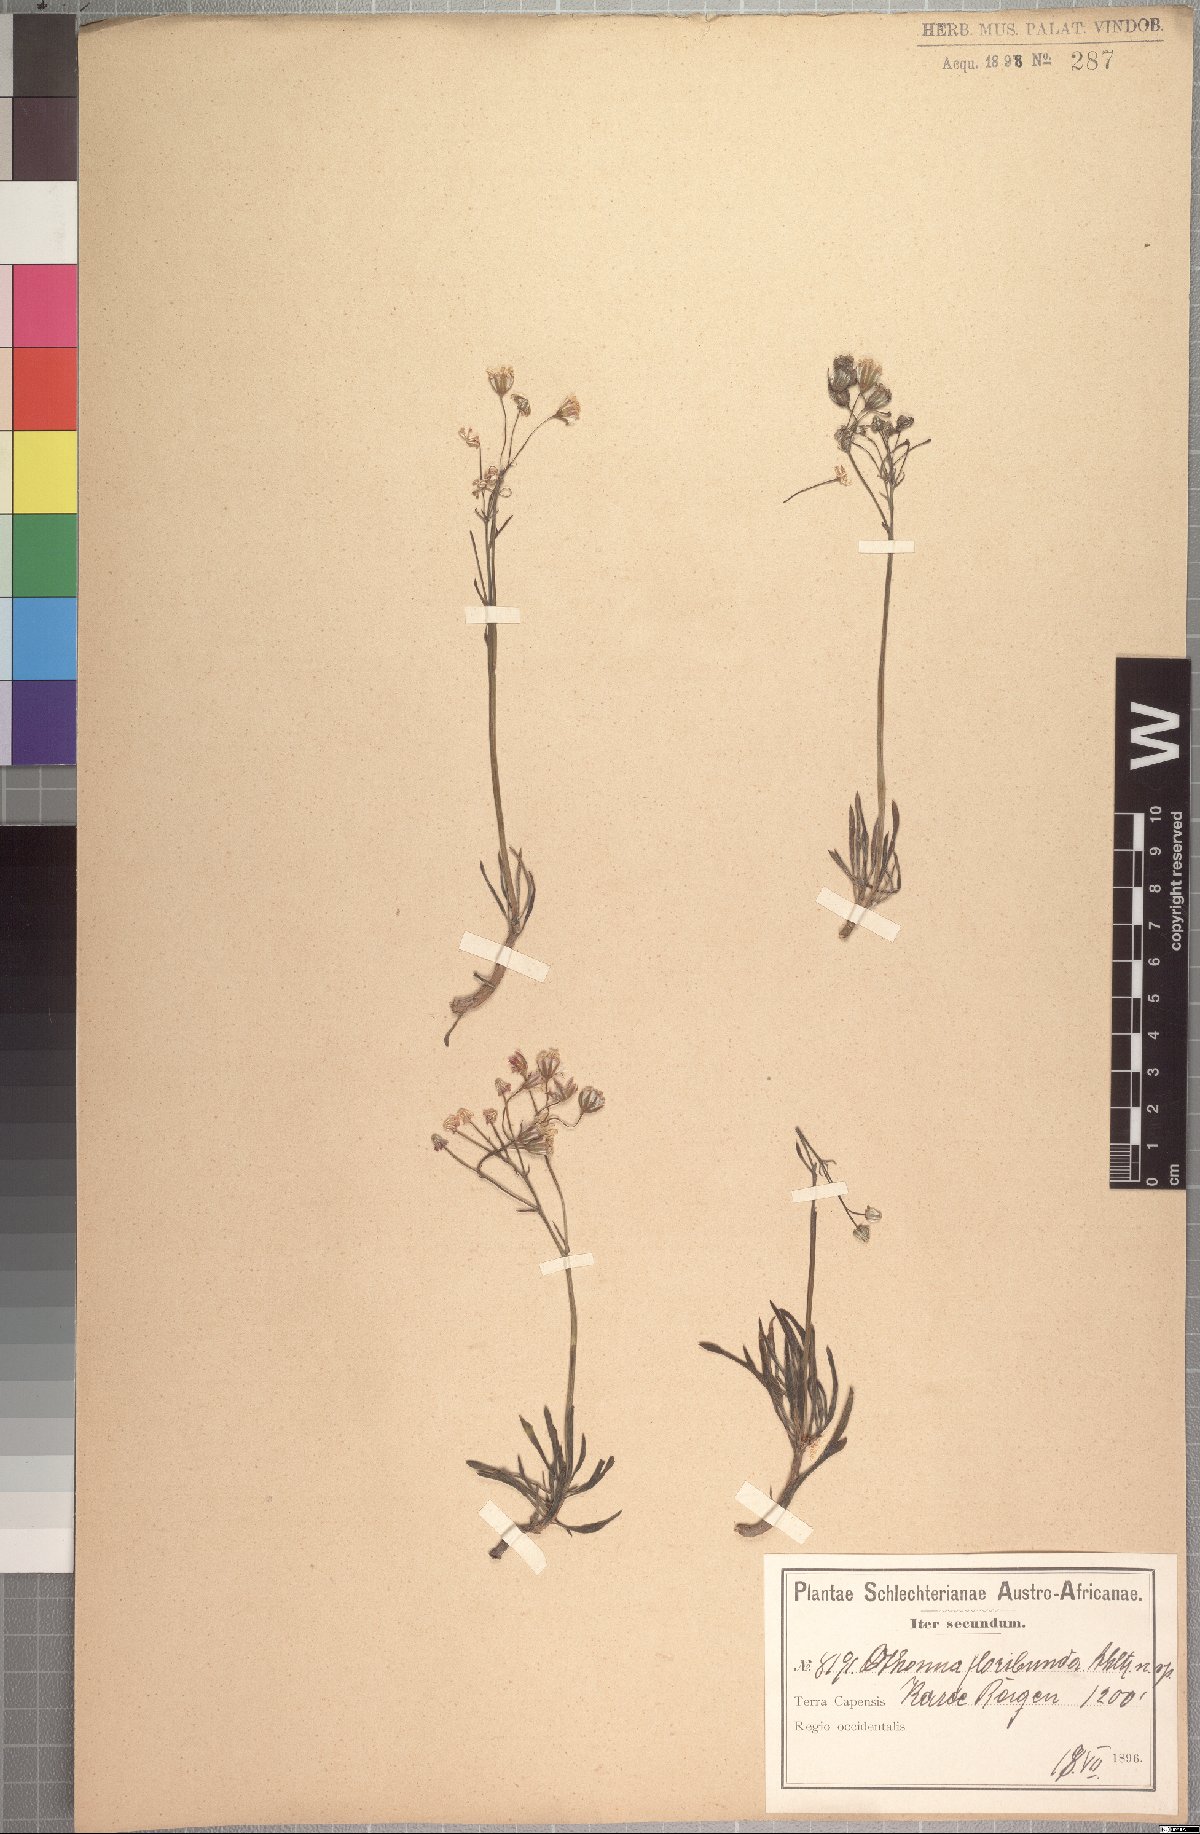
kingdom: Plantae
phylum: Tracheophyta
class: Magnoliopsida
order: Asterales
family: Asteraceae
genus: Crassothonna
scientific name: Crassothonna floribunda
